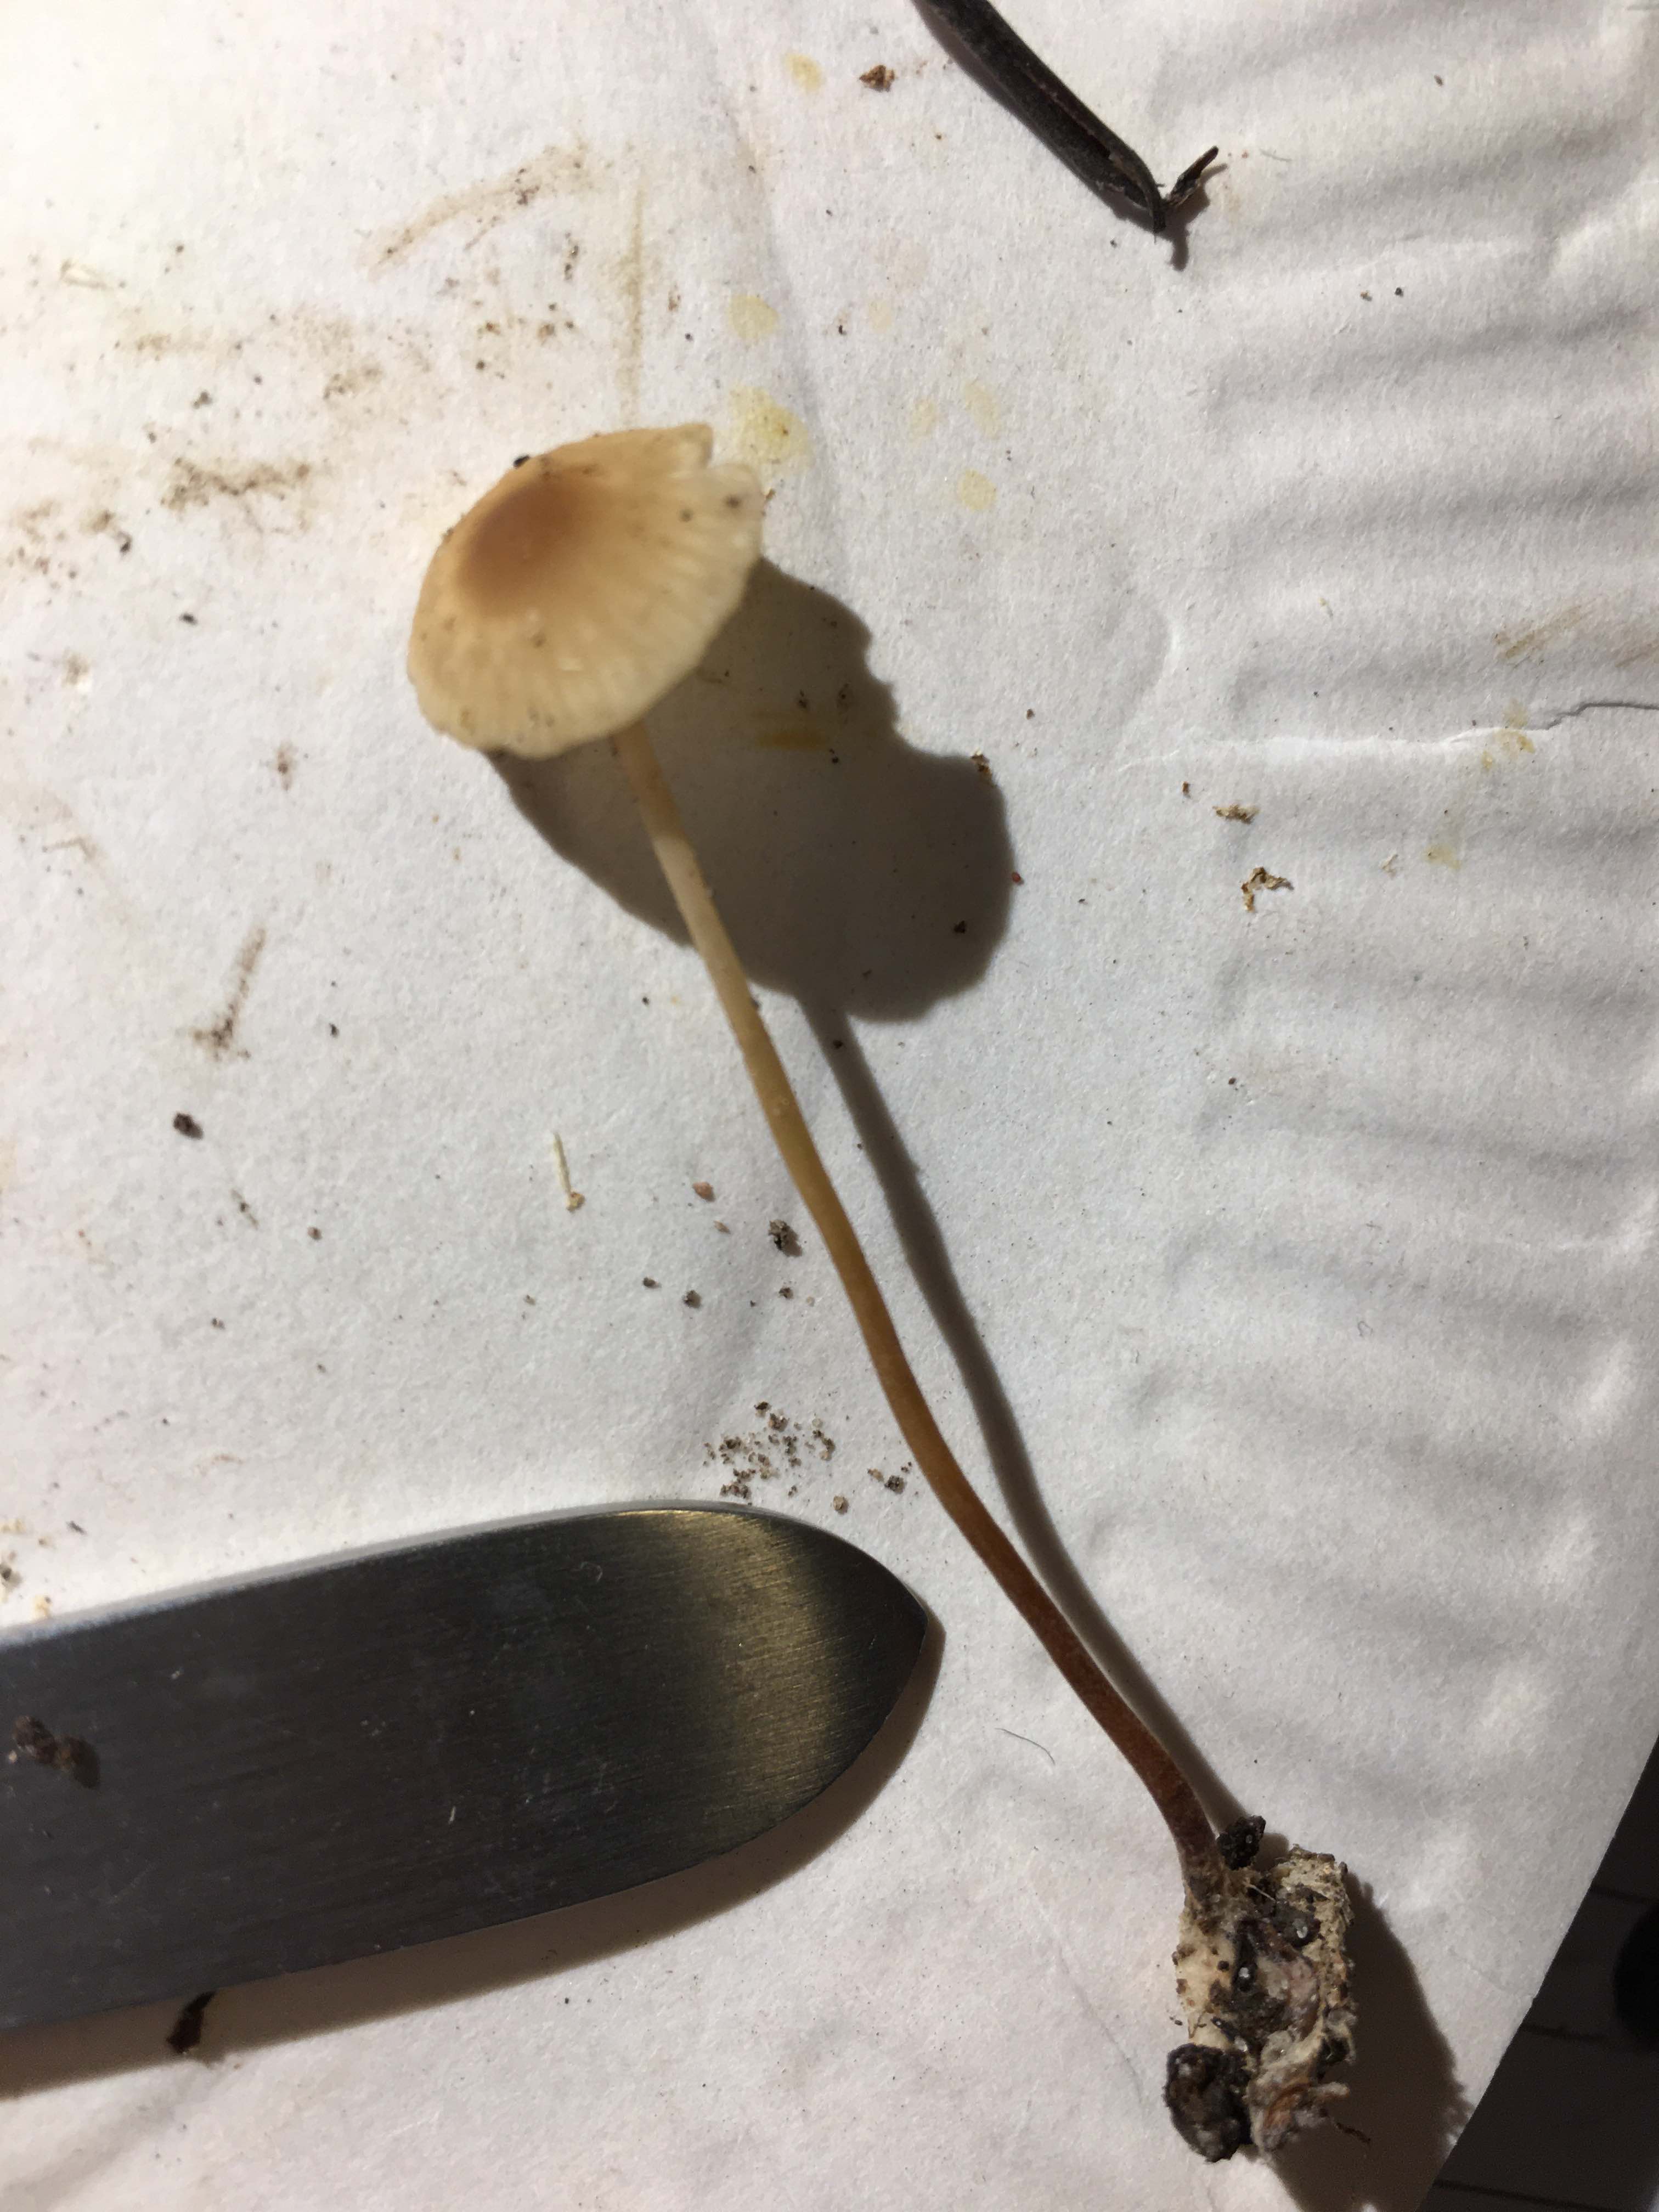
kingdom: Fungi
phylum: Basidiomycota
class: Agaricomycetes
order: Agaricales
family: Marasmiaceae
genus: Marasmius
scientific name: Marasmius torquescens
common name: filtfodet bruskhat
